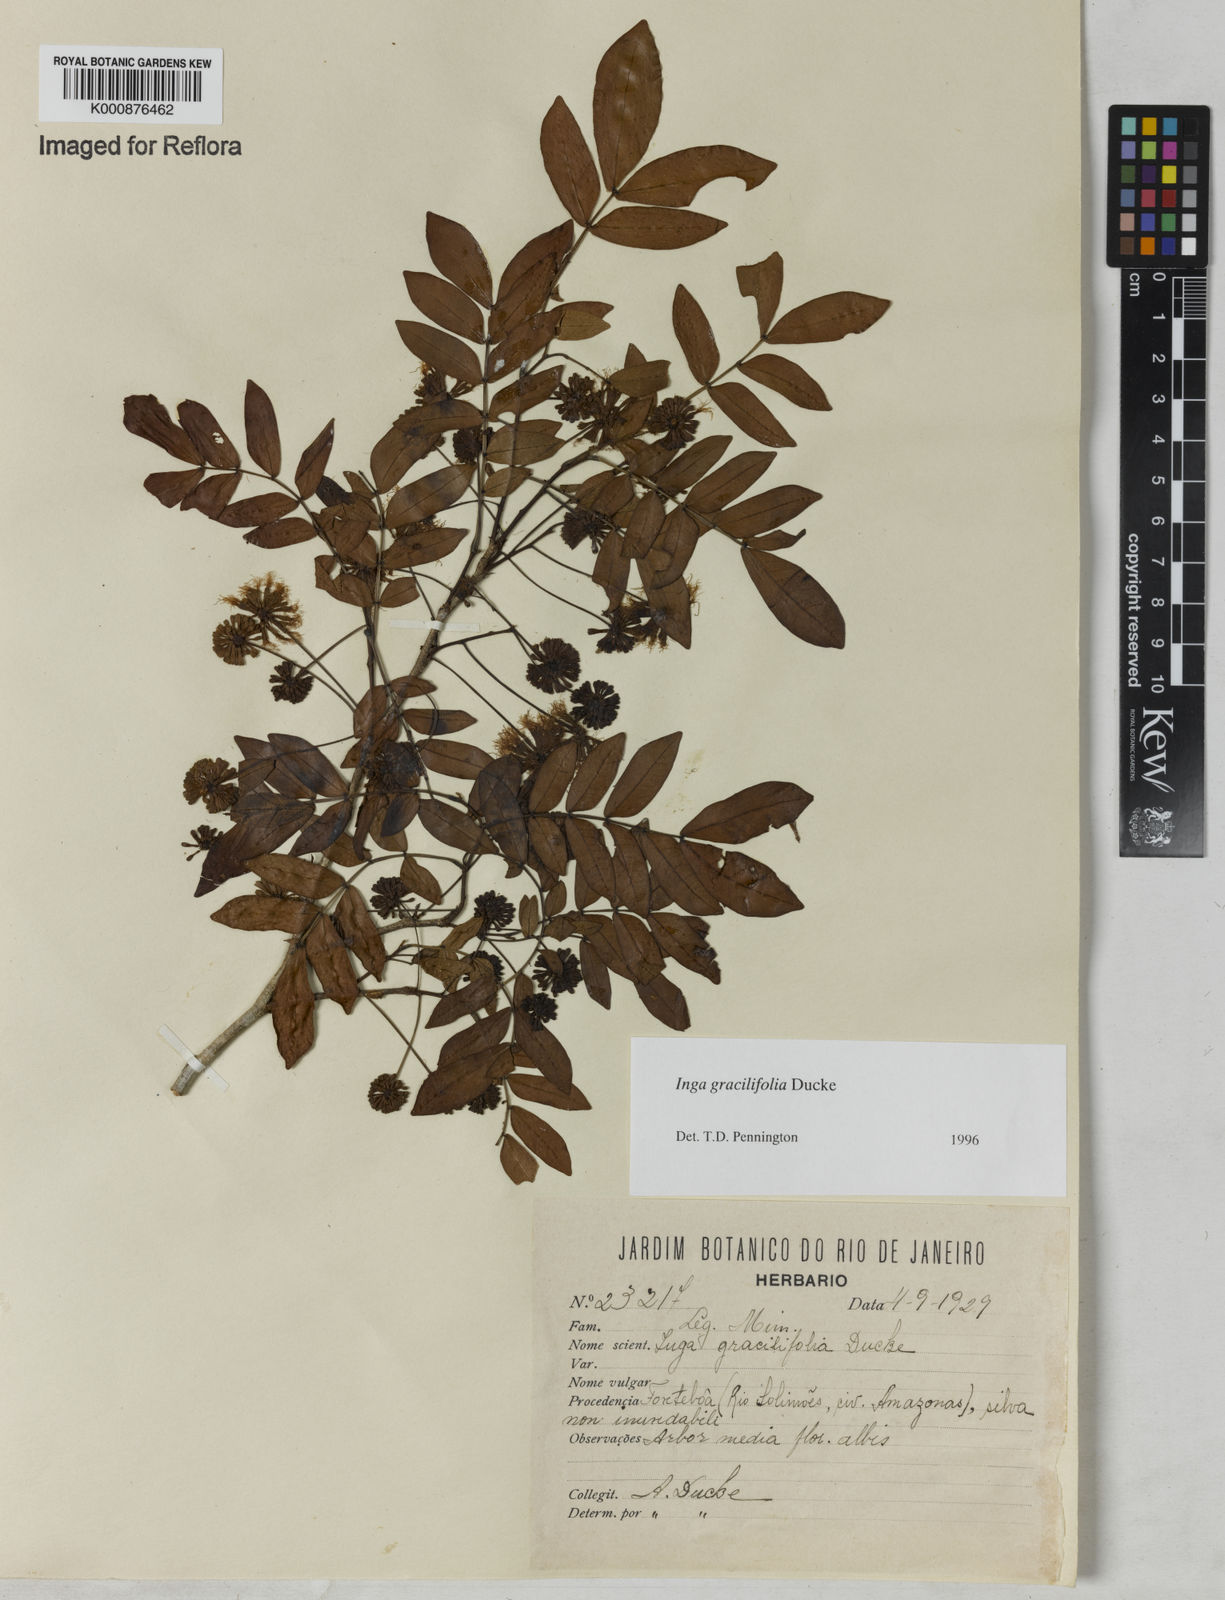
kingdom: Plantae
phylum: Tracheophyta
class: Magnoliopsida
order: Fabales
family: Fabaceae
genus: Inga
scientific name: Inga gracilifolia
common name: Gracefulleaf inga
